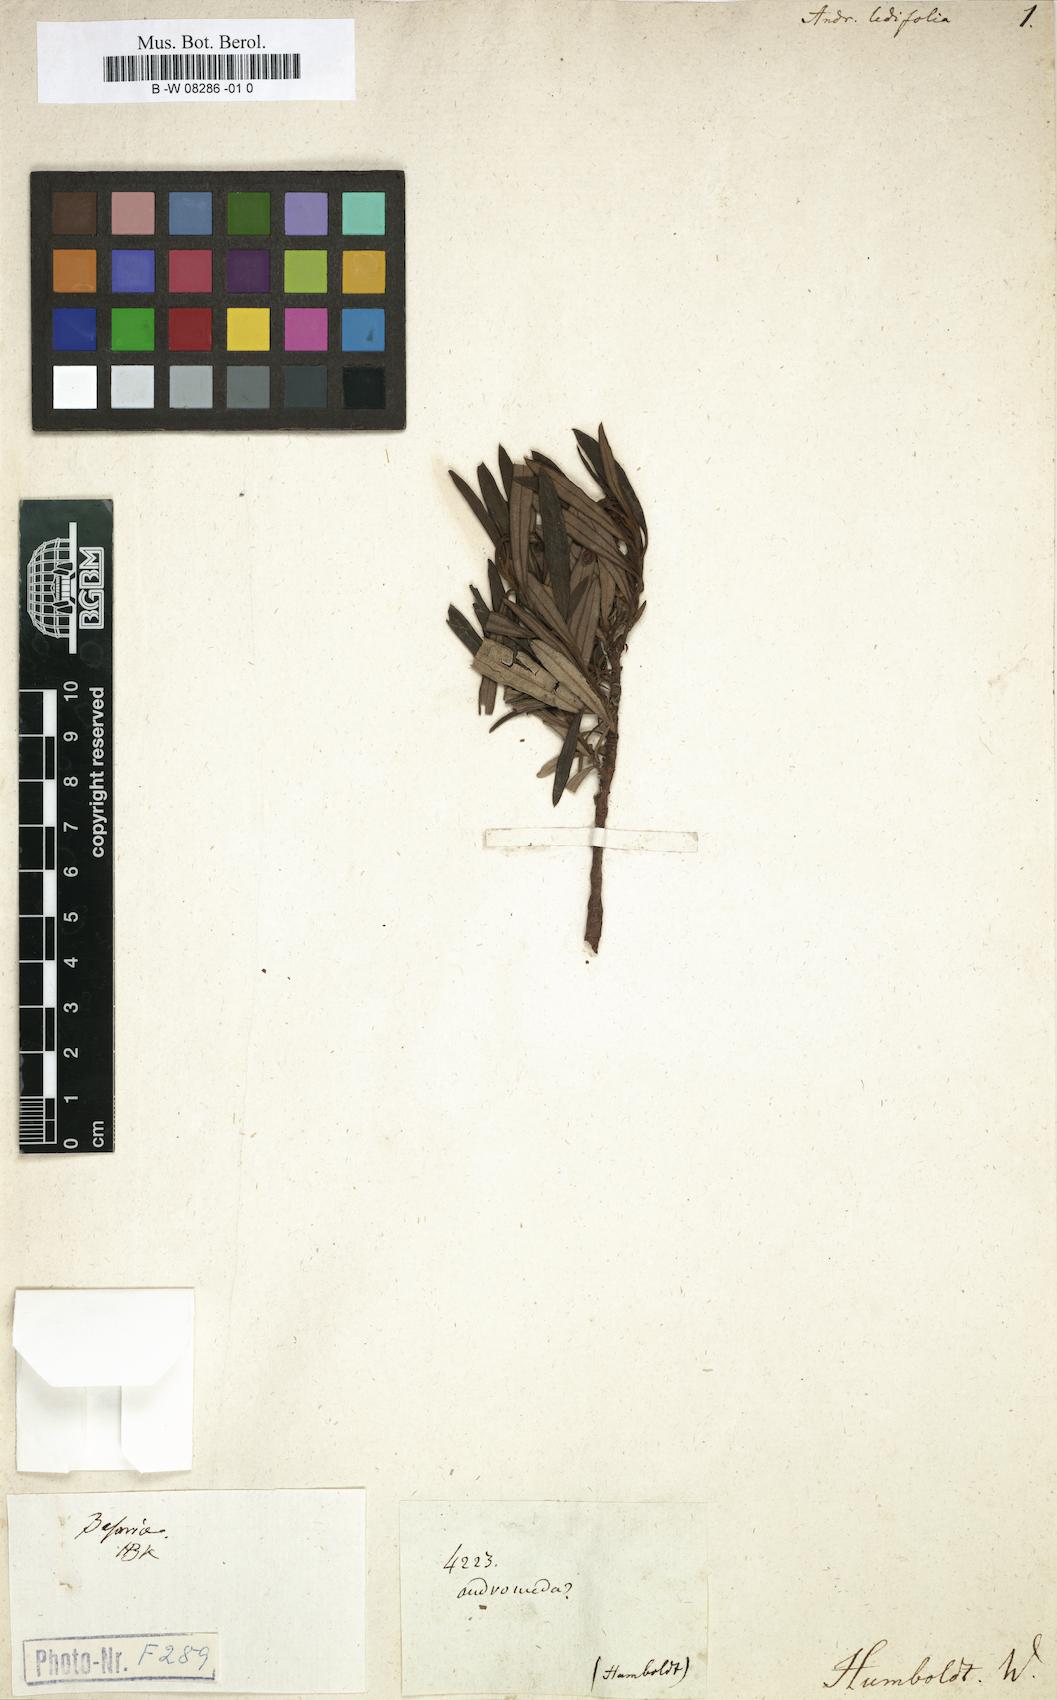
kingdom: Plantae
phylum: Tracheophyta
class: Magnoliopsida
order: Ericales
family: Ericaceae
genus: Comarostaphylis
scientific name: Comarostaphylis polifolia
